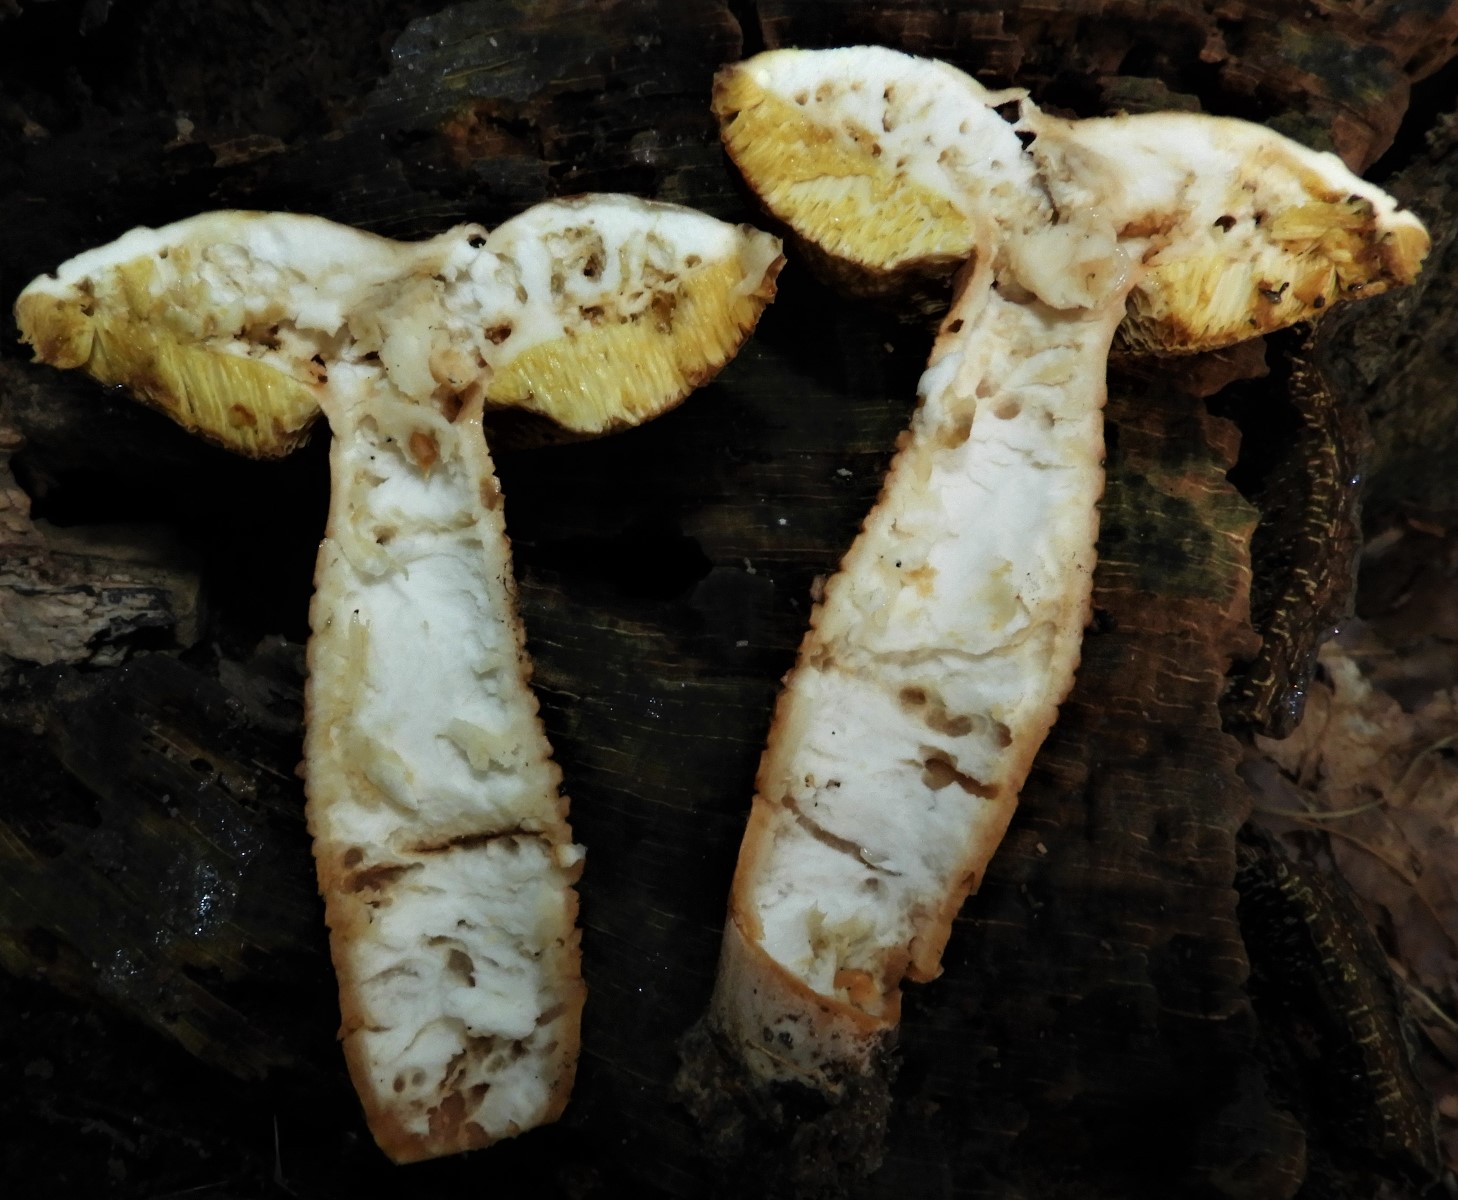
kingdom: Fungi
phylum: Basidiomycota
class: Agaricomycetes
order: Boletales
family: Gyroporaceae
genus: Gyroporus
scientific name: Gyroporus castaneus
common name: kastanie-kammerrørhat
